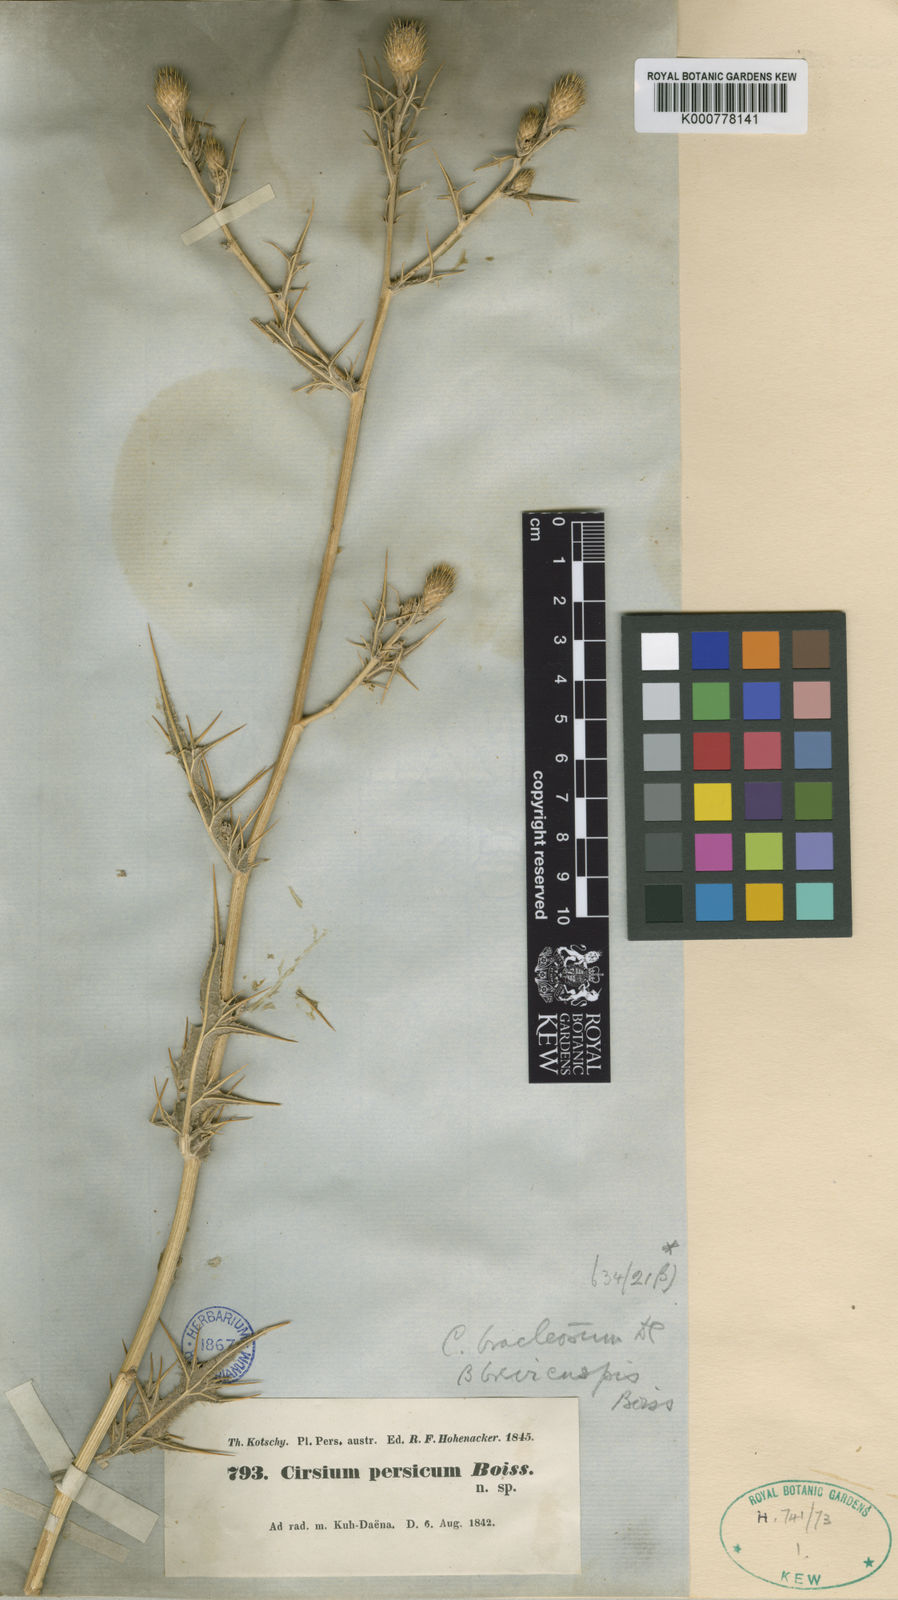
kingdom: Plantae
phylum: Tracheophyta
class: Magnoliopsida
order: Asterales
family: Asteraceae
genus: Lophiolepis
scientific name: Lophiolepis bracteosa
